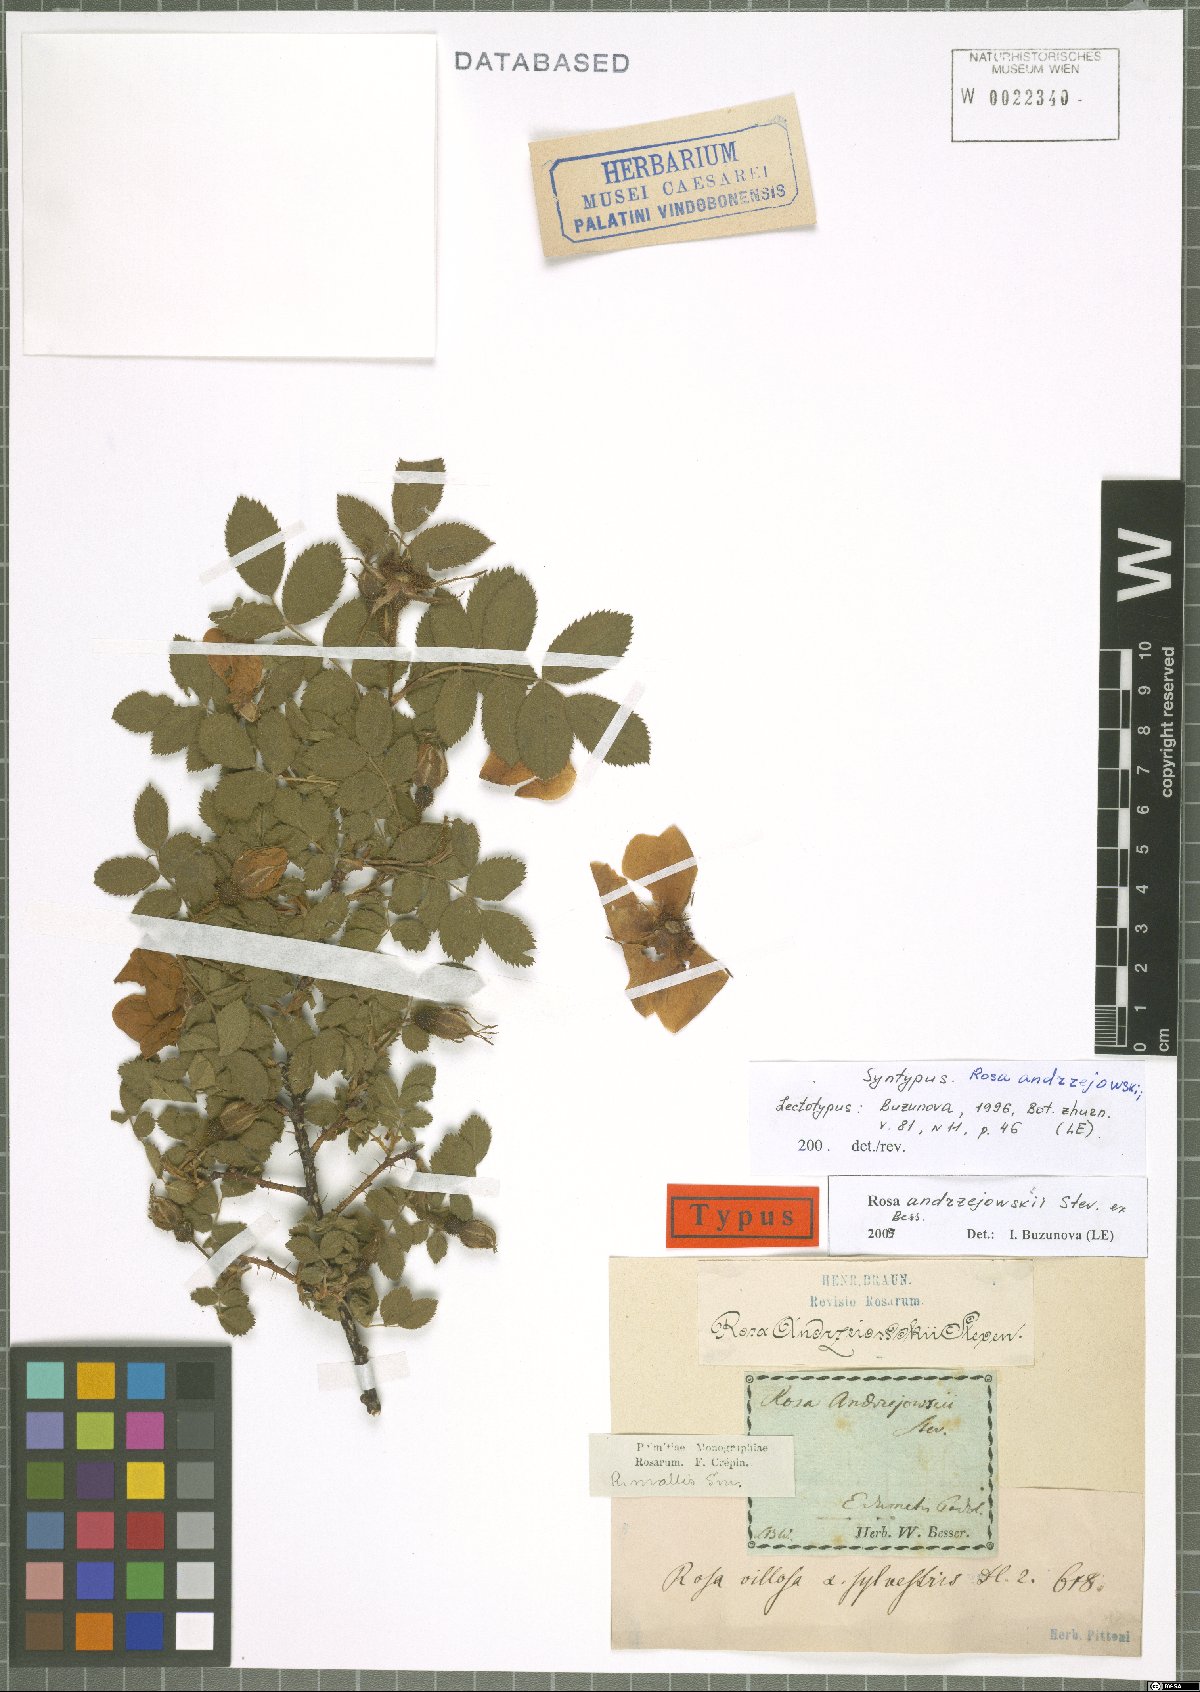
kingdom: Plantae
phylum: Tracheophyta
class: Magnoliopsida
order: Rosales
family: Rosaceae
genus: Rosa
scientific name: Rosa andrzejowskii
